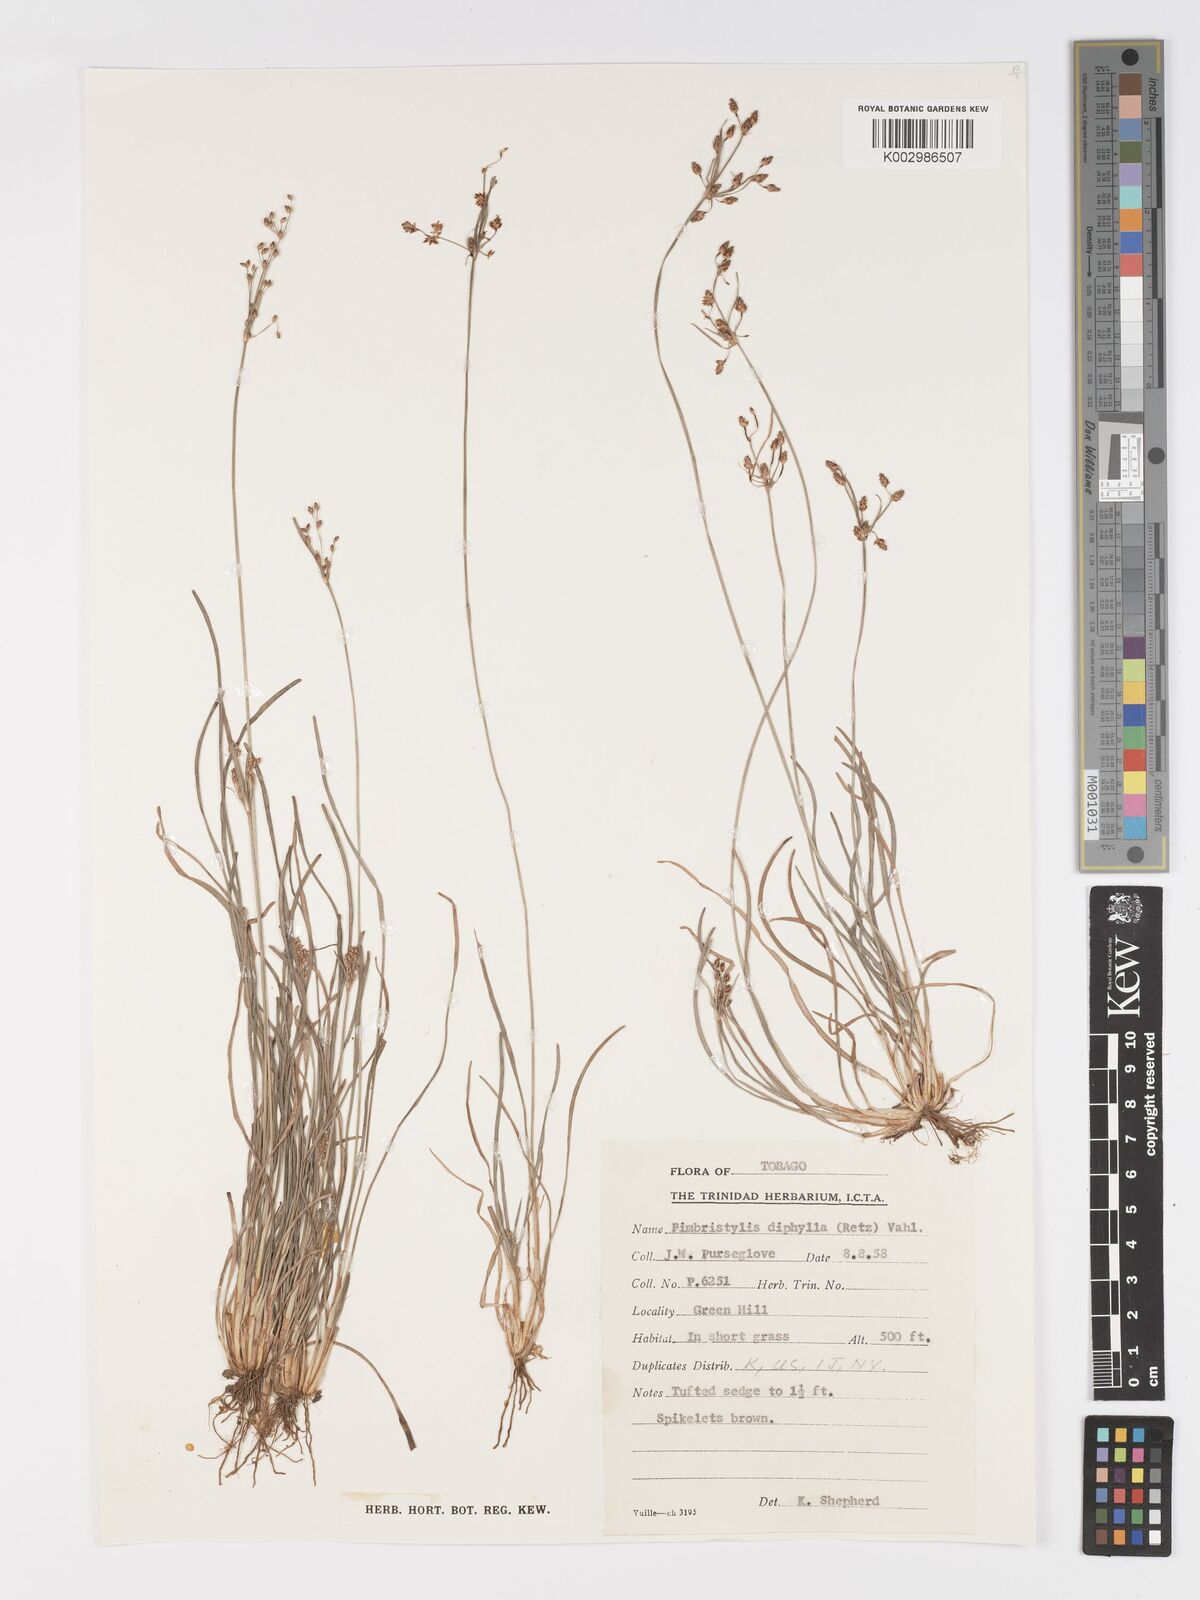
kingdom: Plantae
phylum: Tracheophyta
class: Liliopsida
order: Poales
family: Cyperaceae
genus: Fimbristylis
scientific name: Fimbristylis dichotoma
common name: Forked fimbry
